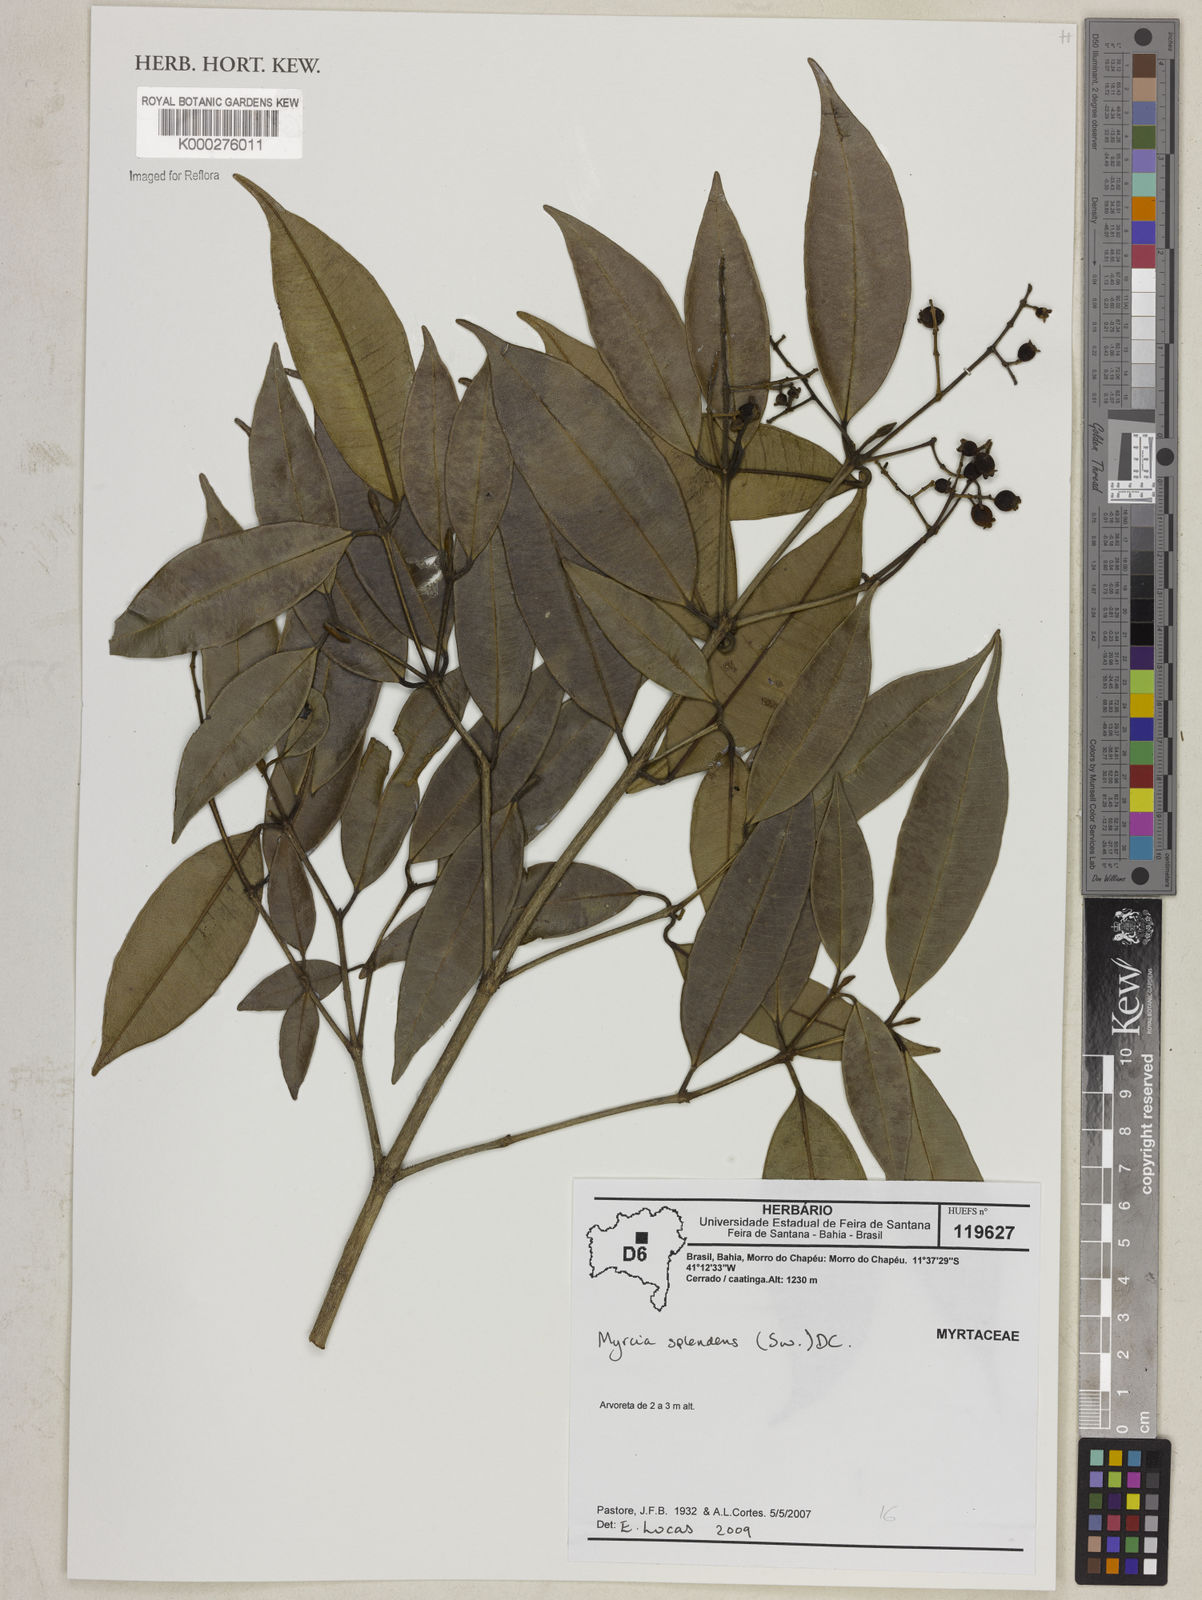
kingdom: Plantae
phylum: Tracheophyta
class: Magnoliopsida
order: Myrtales
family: Myrtaceae
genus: Myrcia
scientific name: Myrcia splendens
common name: Surinam cherry
